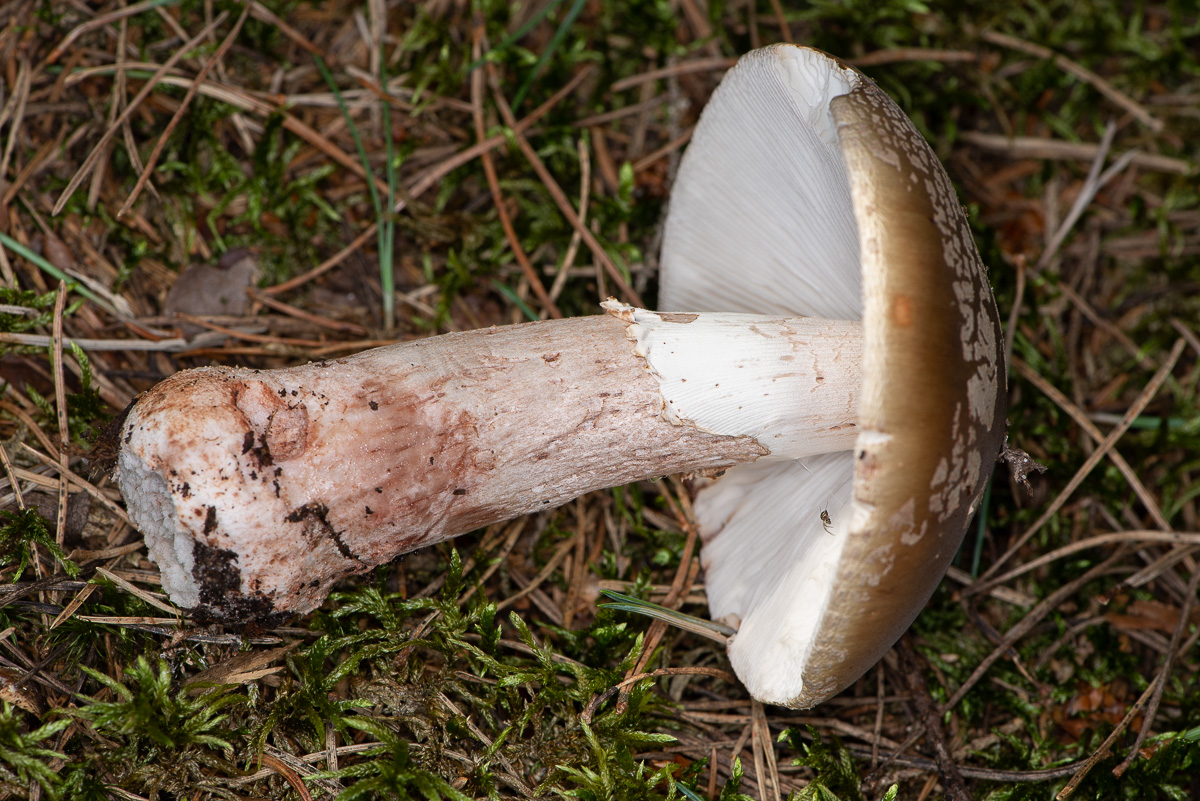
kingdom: Fungi
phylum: Basidiomycota
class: Agaricomycetes
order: Agaricales
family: Amanitaceae
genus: Amanita
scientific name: Amanita rubescens
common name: rødmende fluesvamp
